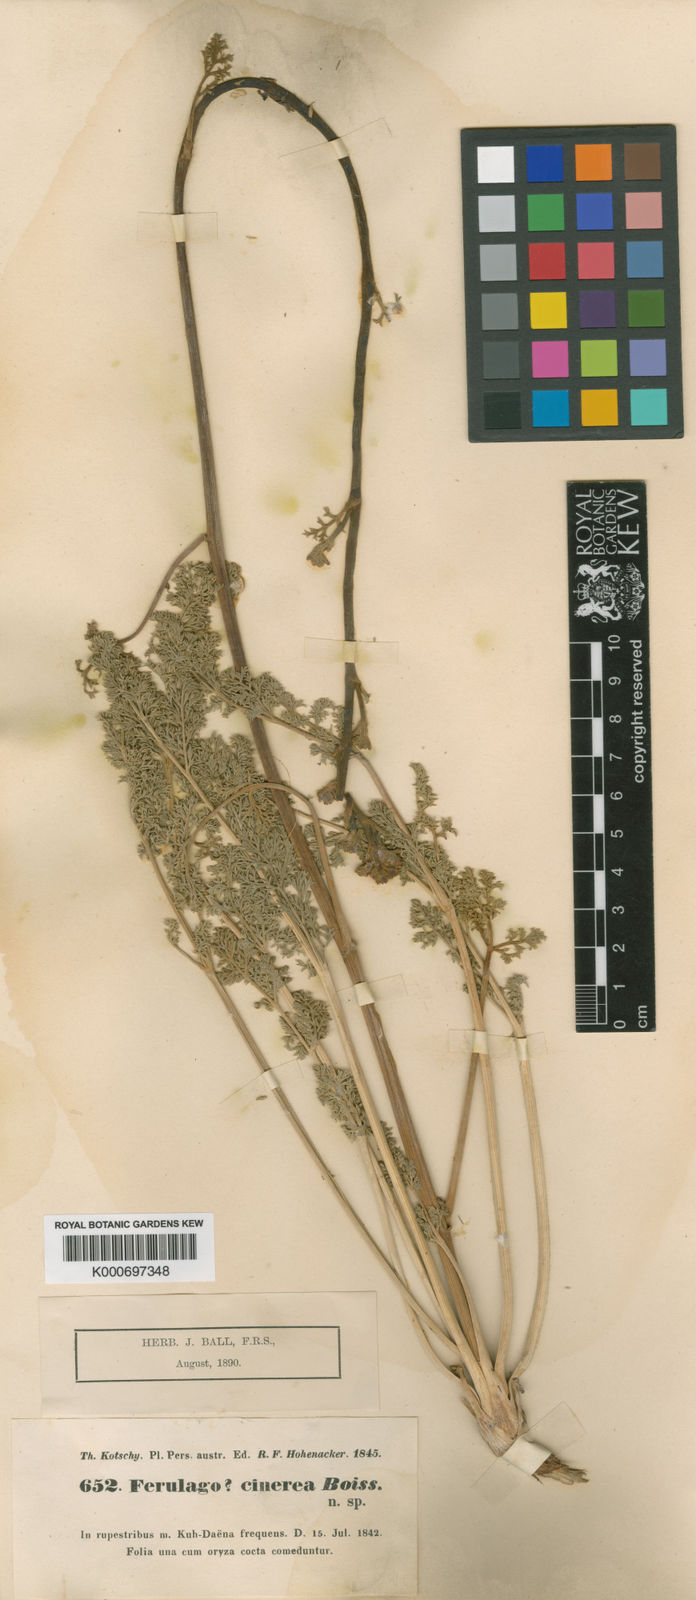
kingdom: Plantae
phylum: Tracheophyta
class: Magnoliopsida
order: Apiales
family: Apiaceae
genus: Echinophora
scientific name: Echinophora cinerea
